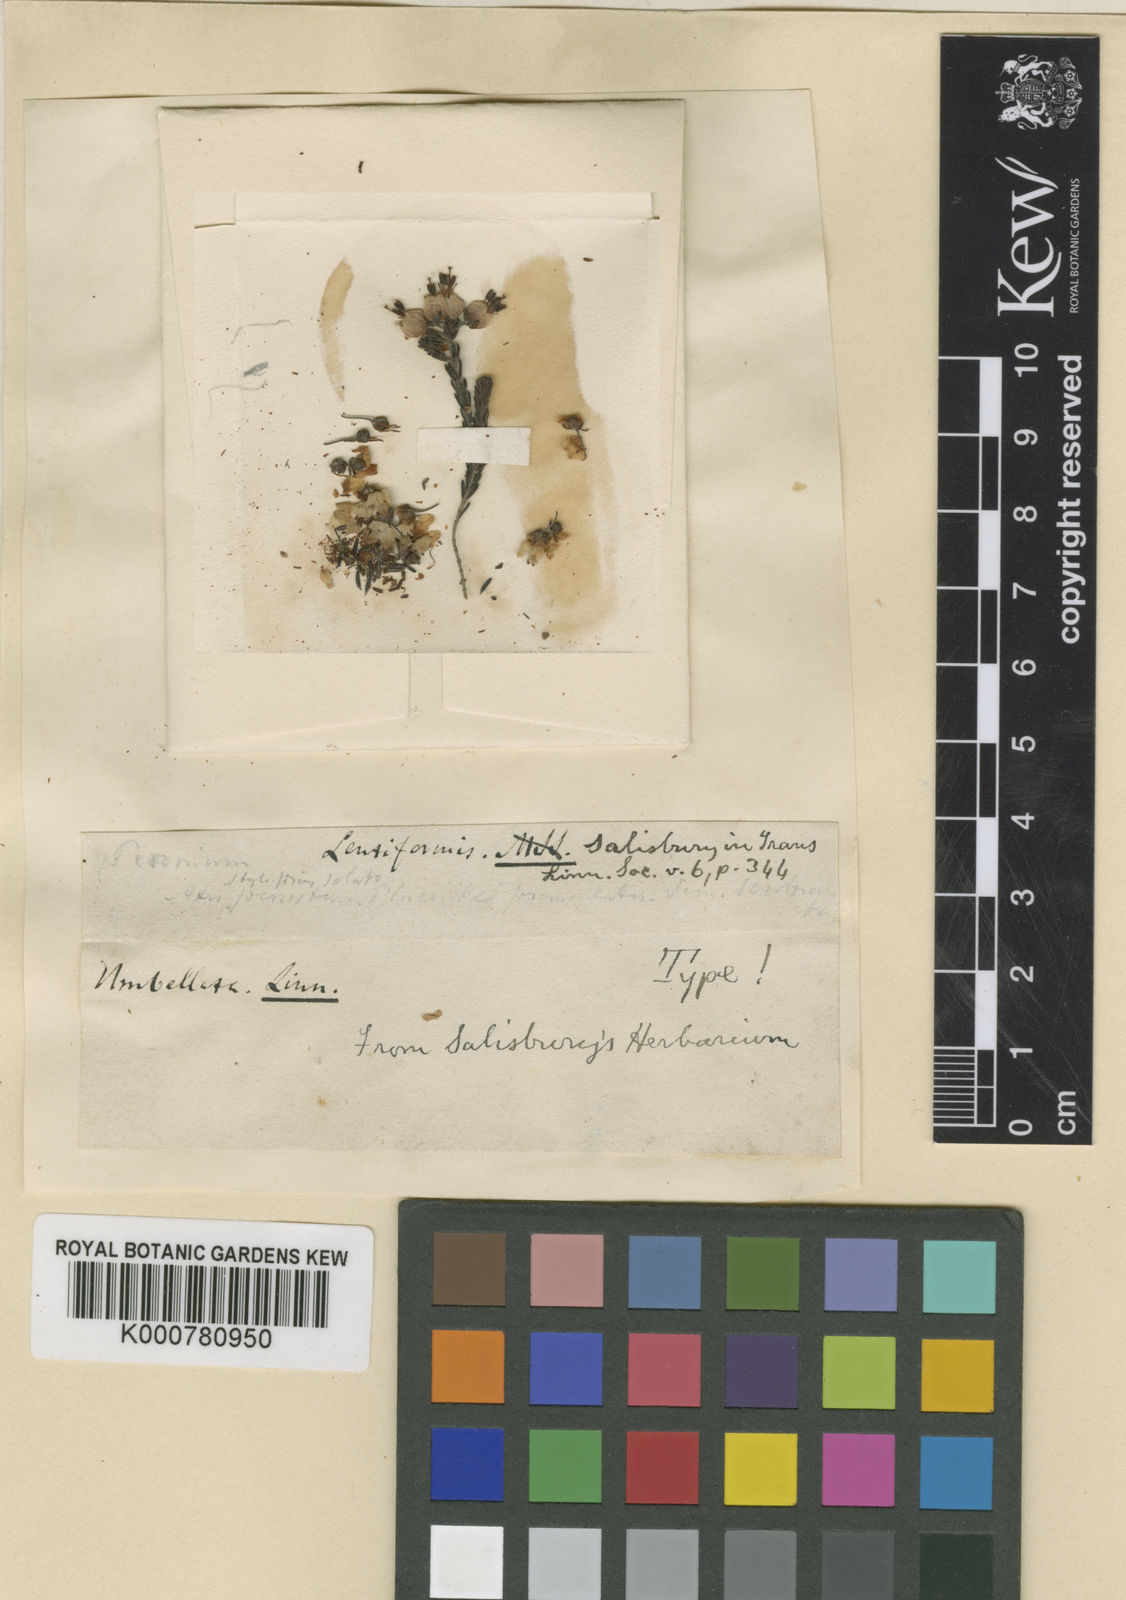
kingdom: Plantae
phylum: Tracheophyta
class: Magnoliopsida
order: Ericales
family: Ericaceae
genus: Erica
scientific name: Erica umbellata
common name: Dwarf spanish heath
